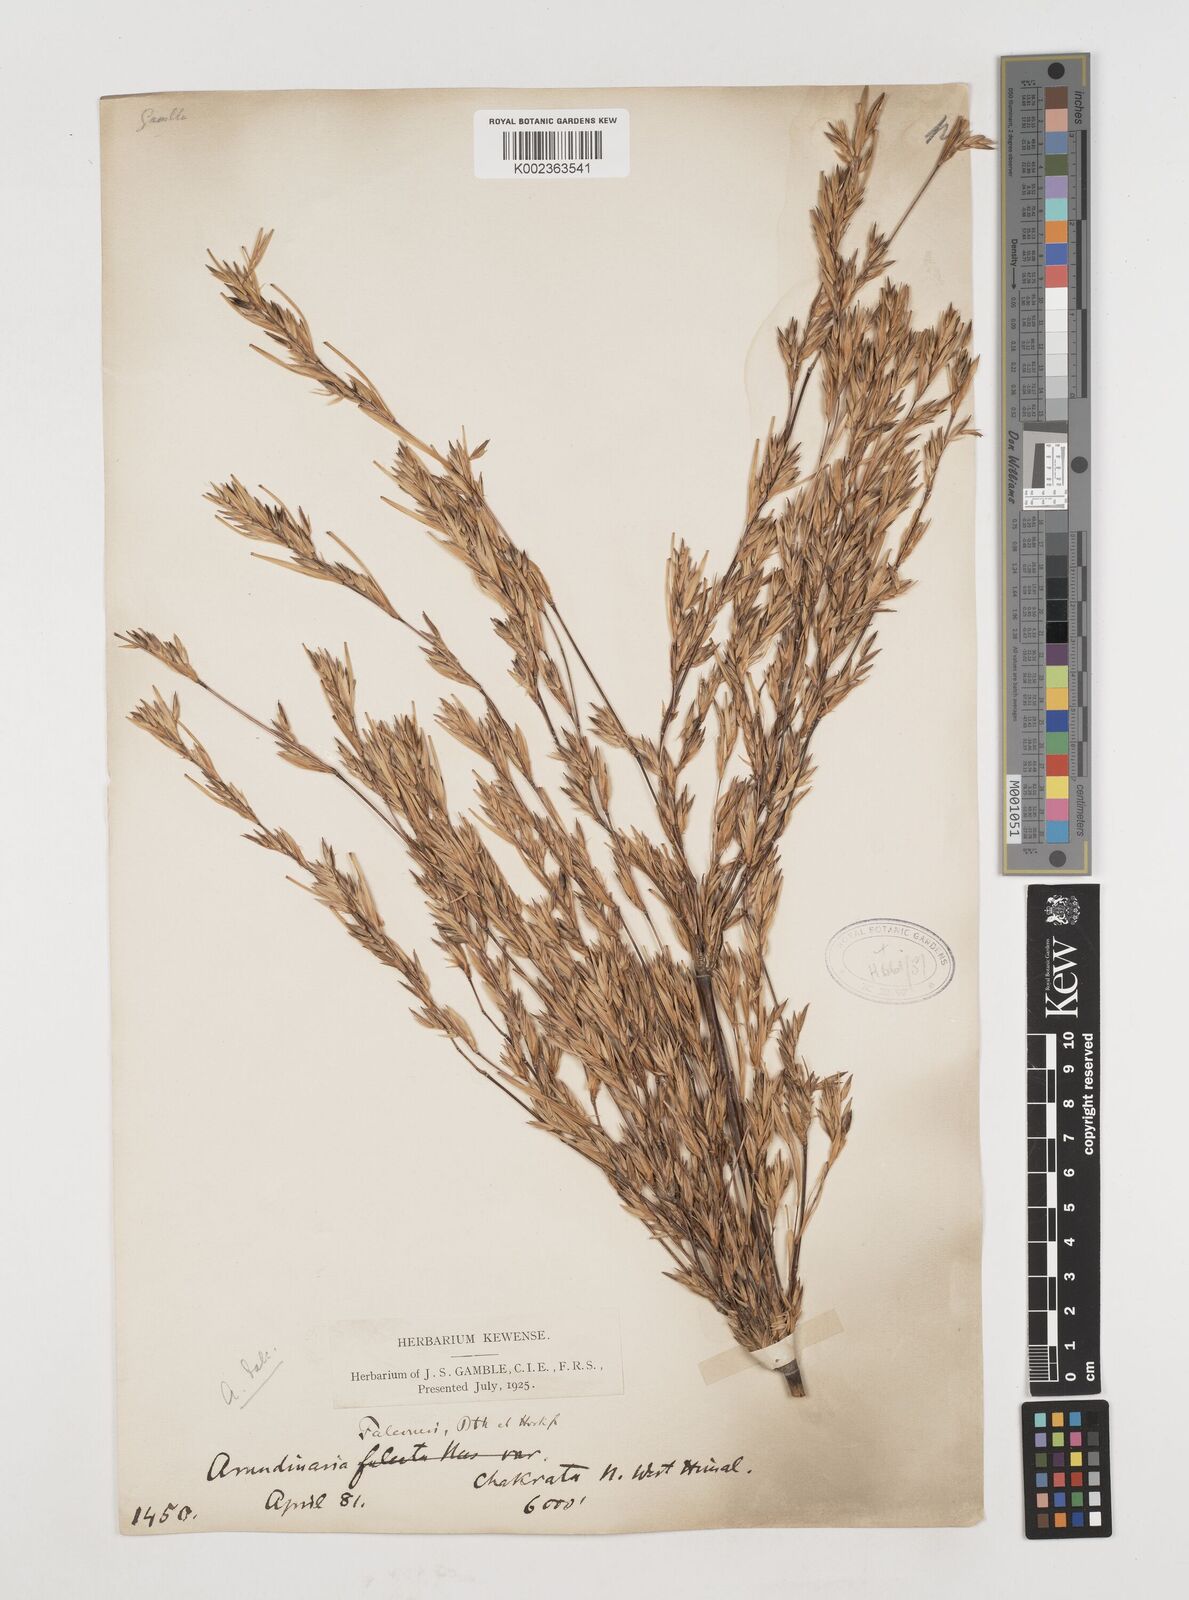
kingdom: Plantae
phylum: Tracheophyta
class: Liliopsida
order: Poales
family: Poaceae
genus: Himalayacalamus
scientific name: Himalayacalamus falconeri
